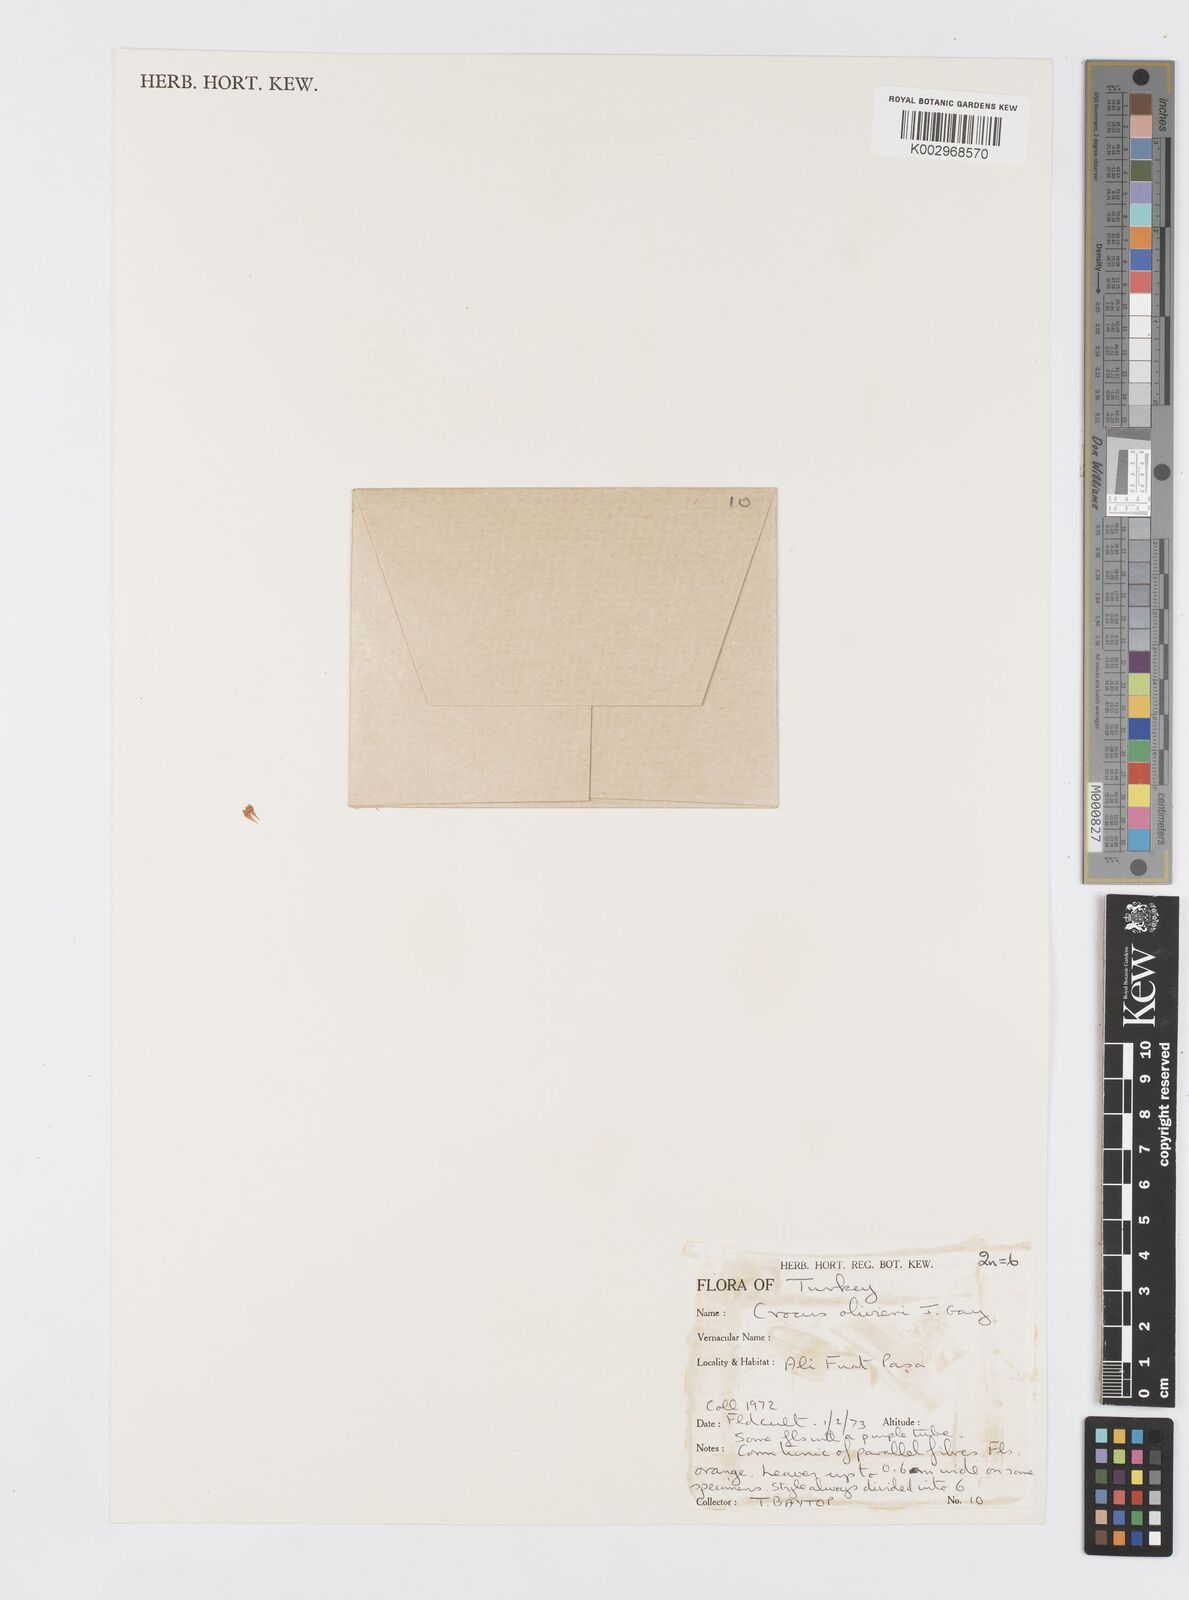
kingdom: Plantae
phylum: Tracheophyta
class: Liliopsida
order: Asparagales
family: Iridaceae
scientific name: Iridaceae
